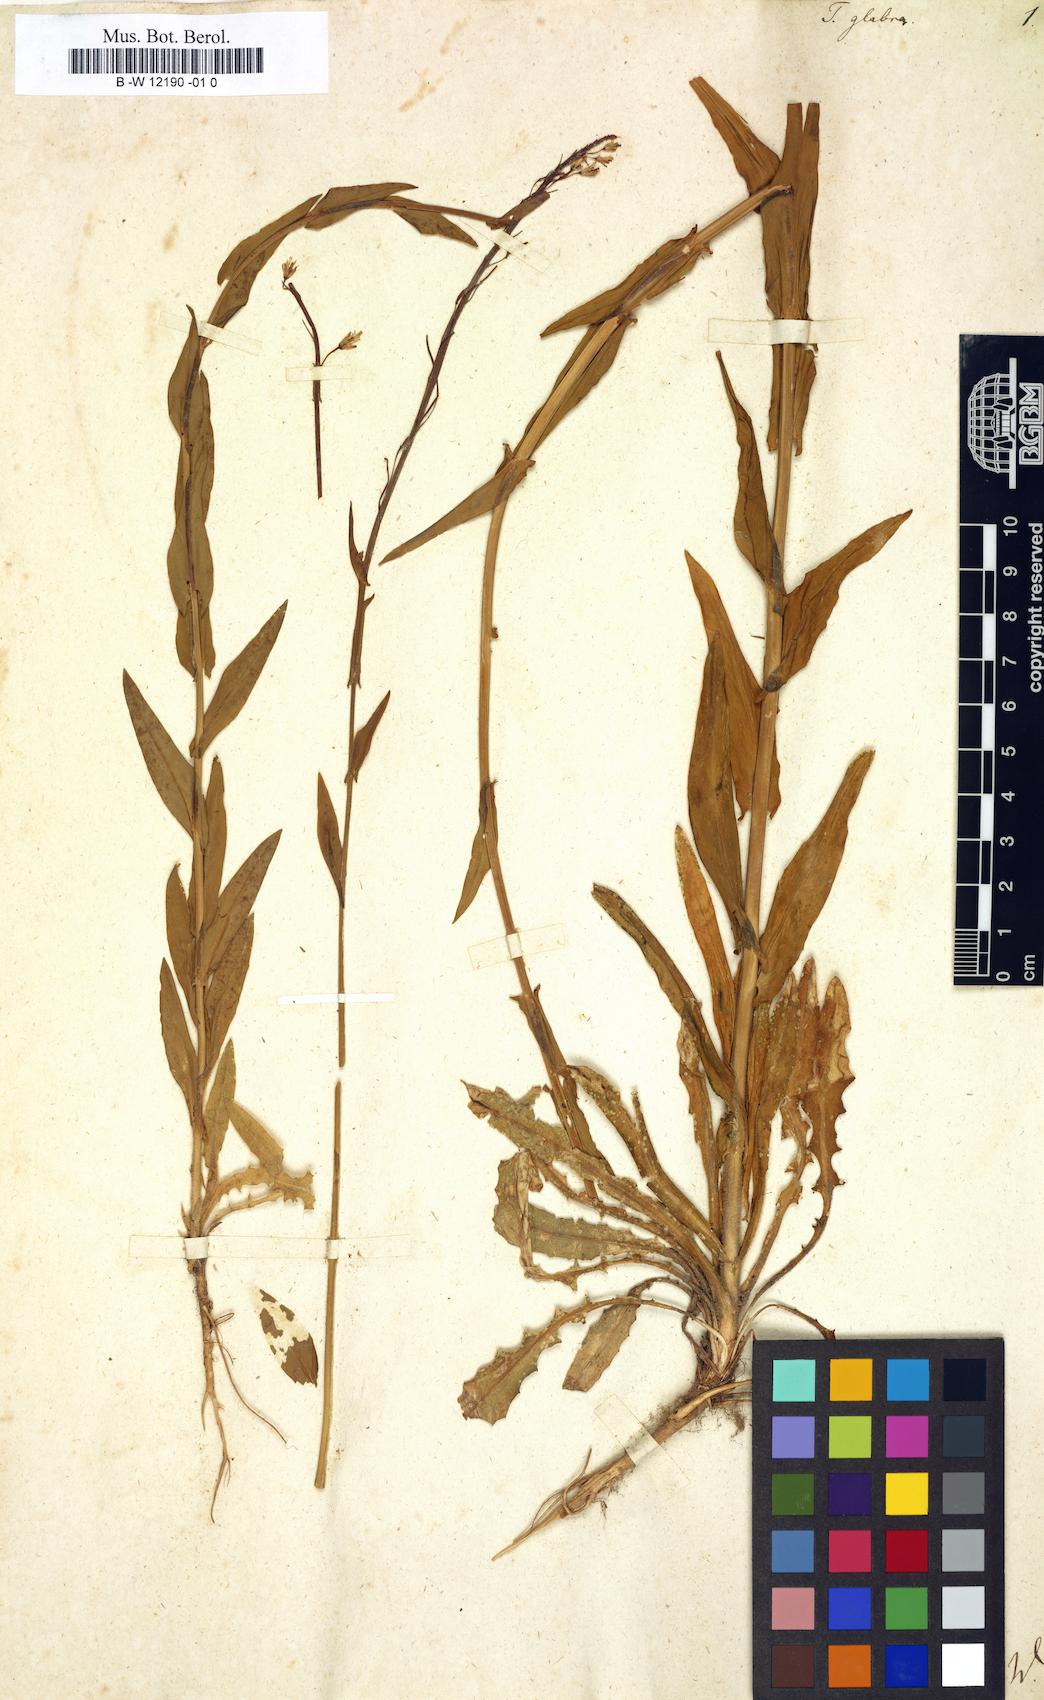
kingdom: Plantae
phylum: Tracheophyta
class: Magnoliopsida
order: Brassicales
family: Brassicaceae
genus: Turritis
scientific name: Turritis glabra
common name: Tower rockcress
